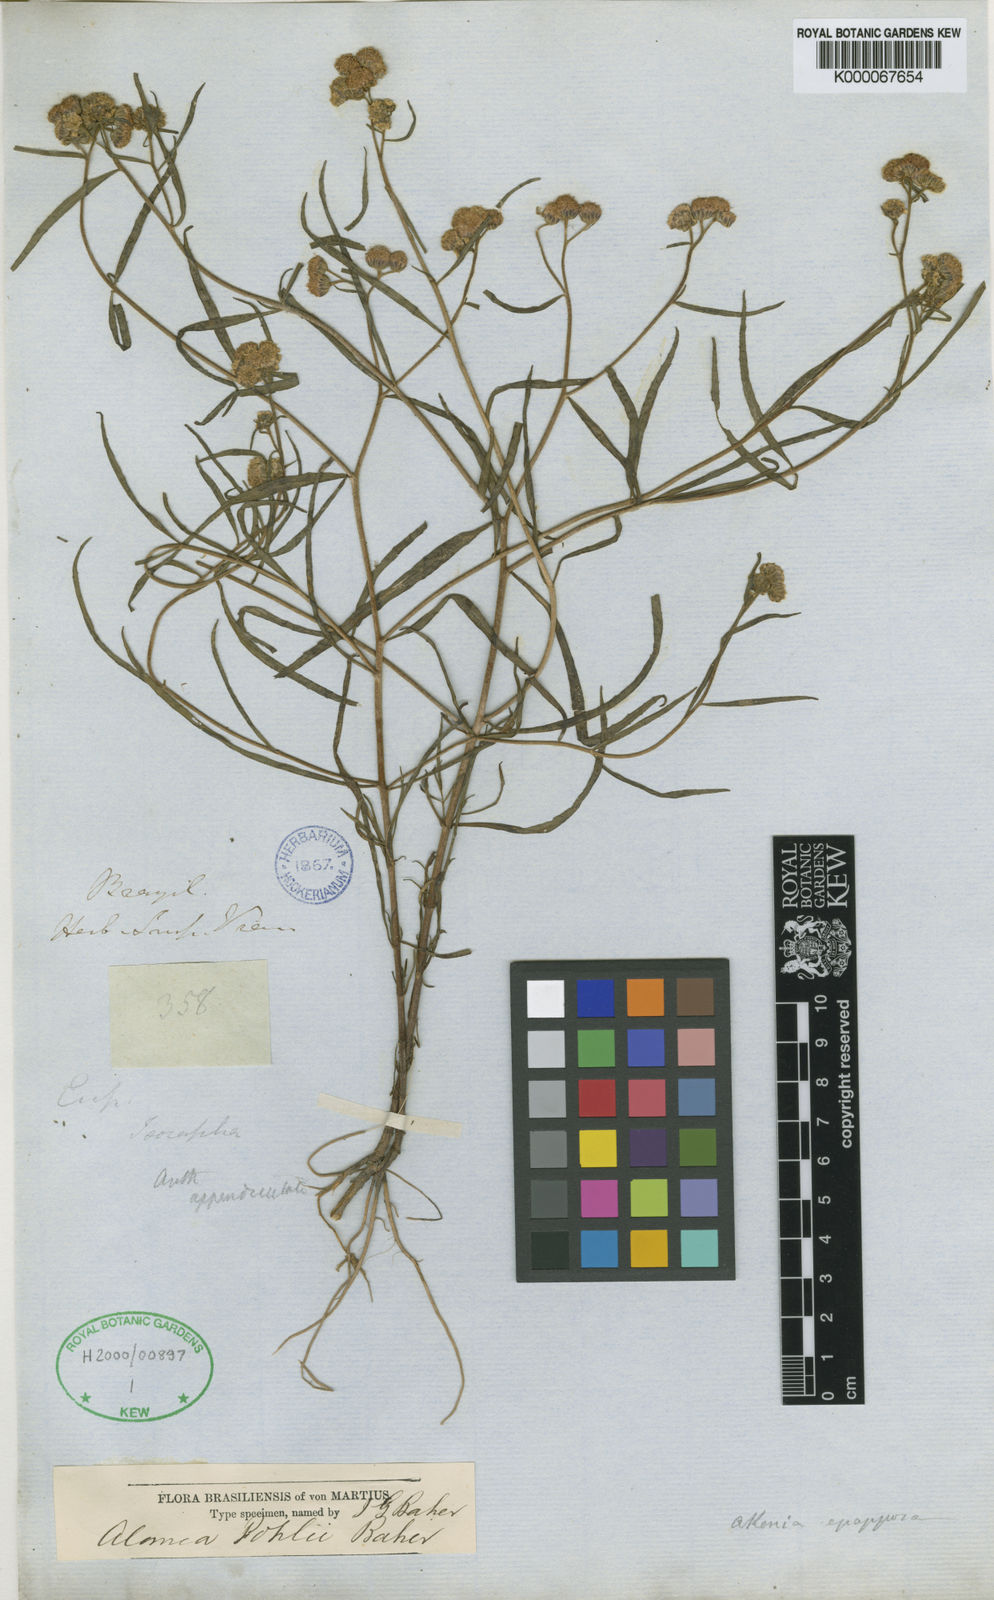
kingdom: Plantae
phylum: Tracheophyta
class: Magnoliopsida
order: Asterales
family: Asteraceae
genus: Teixeiranthus
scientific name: Teixeiranthus pohlii
